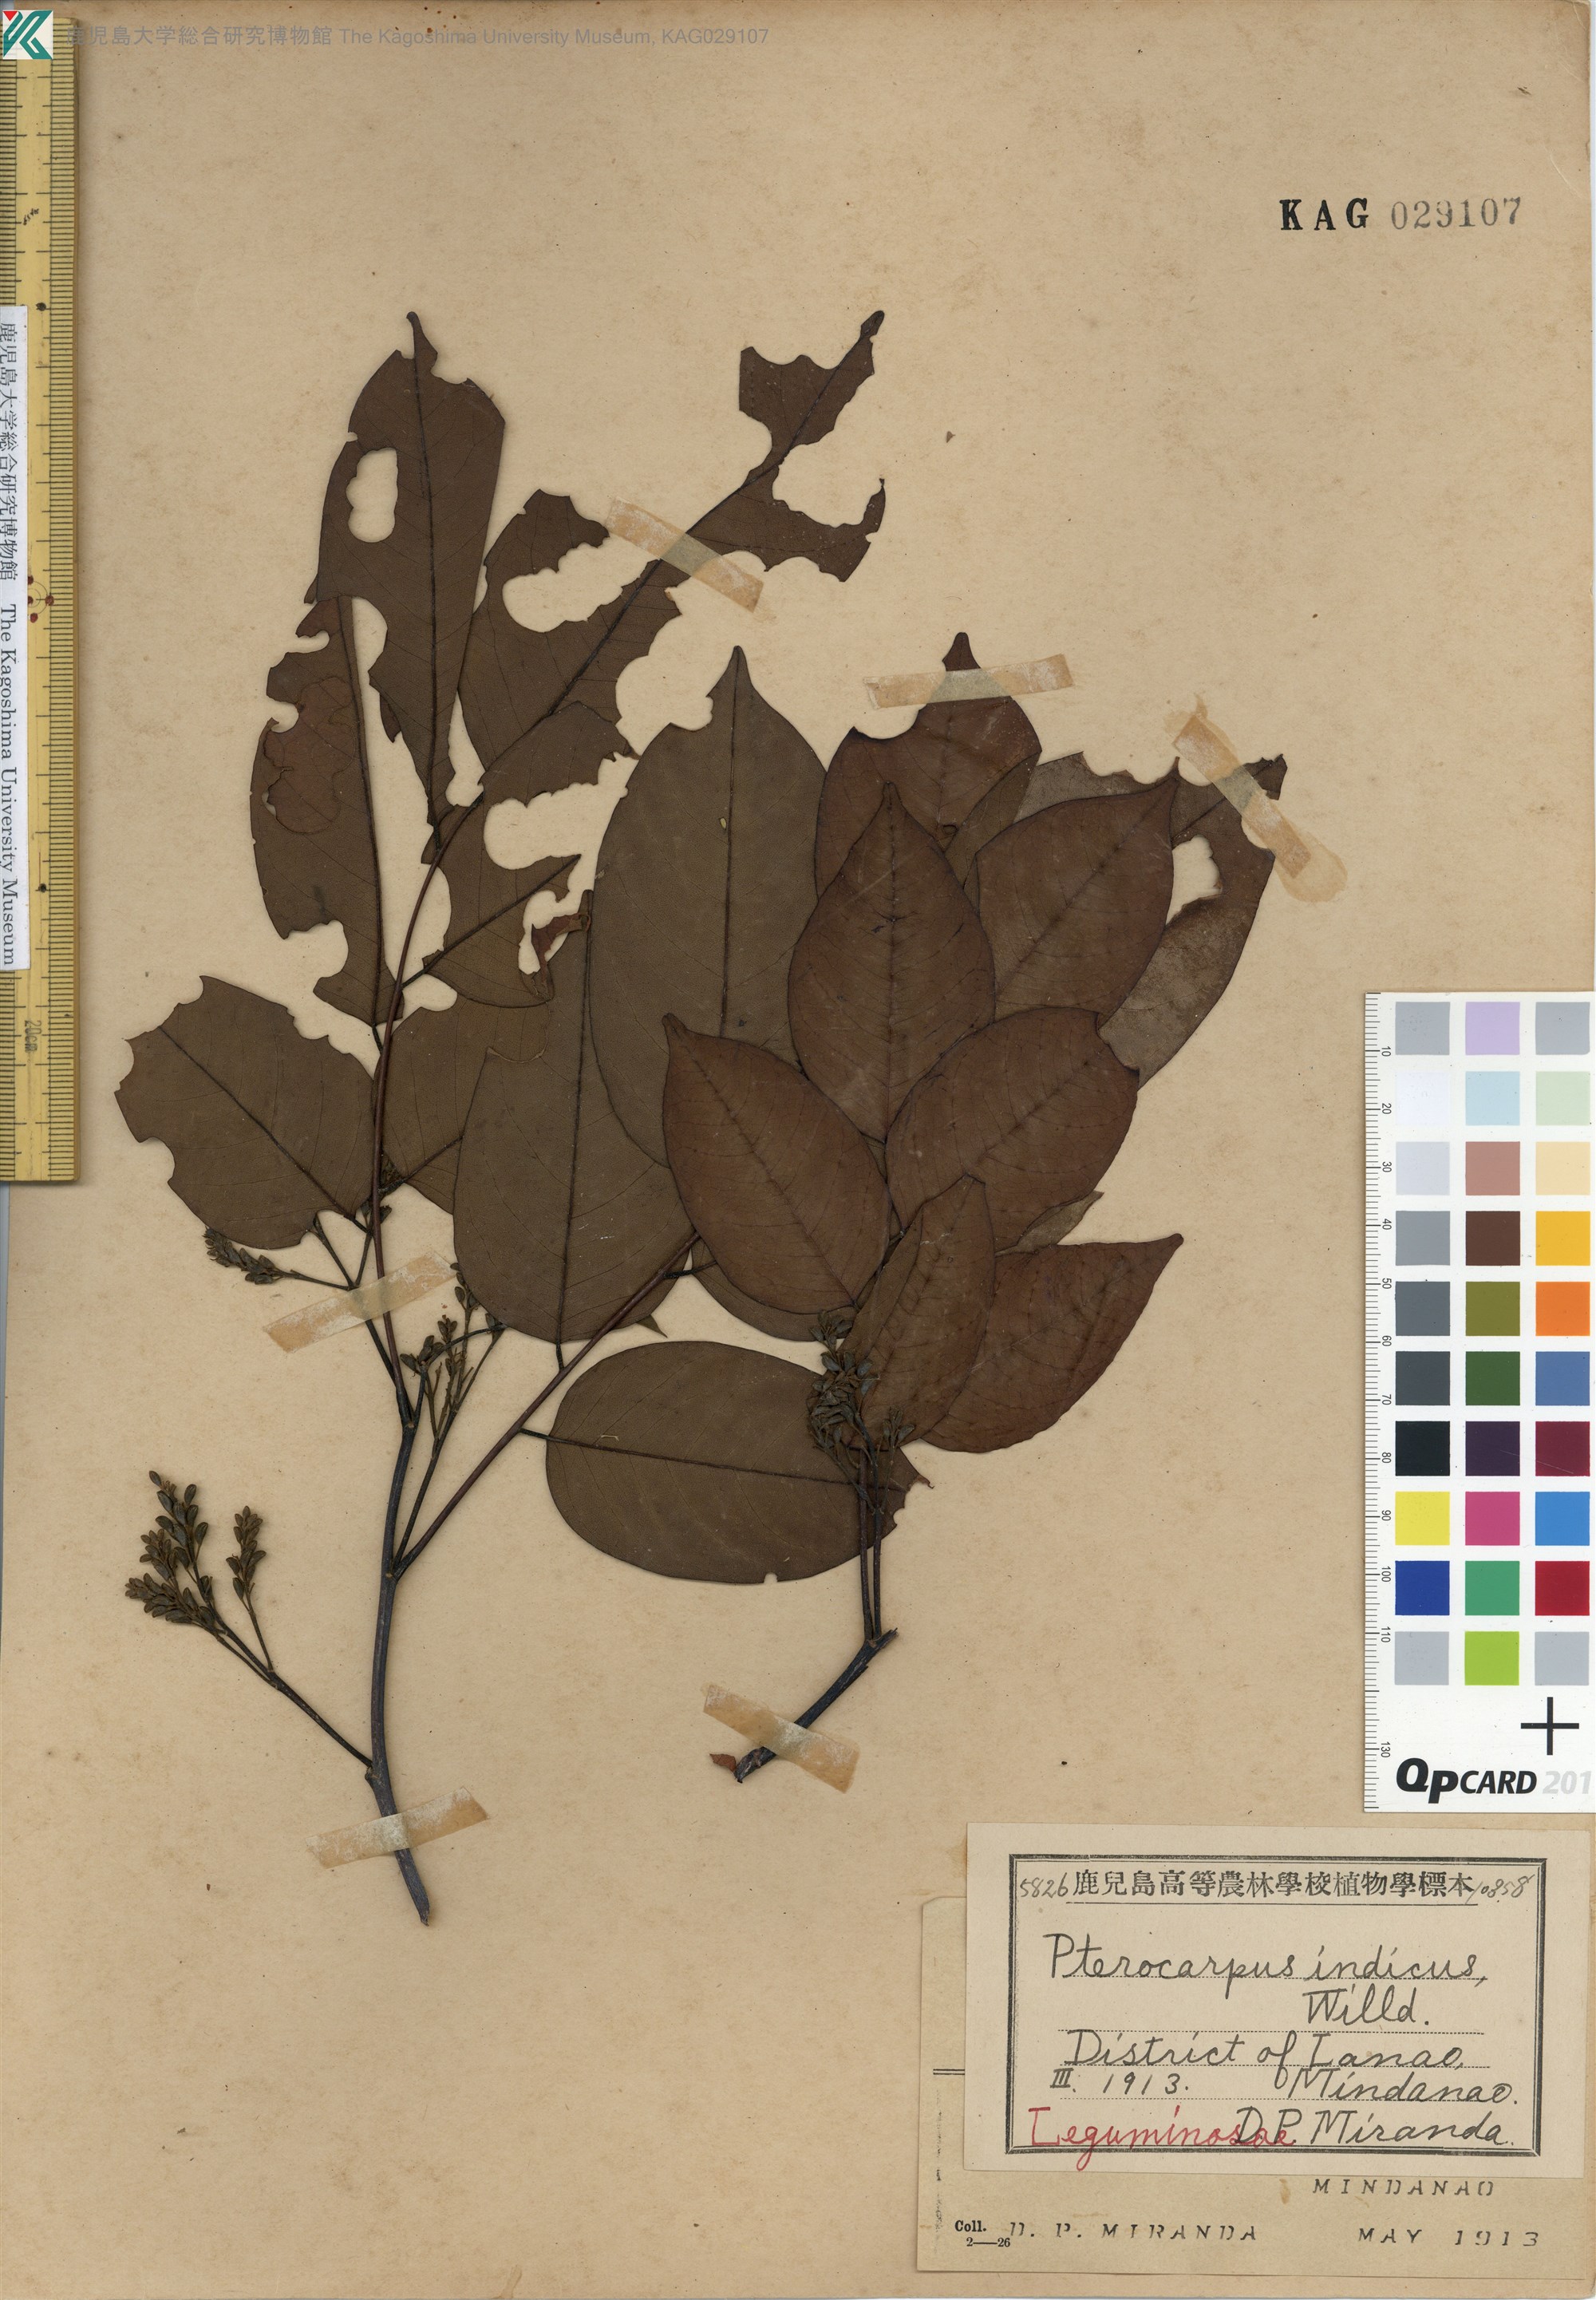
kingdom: Plantae
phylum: Tracheophyta
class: Magnoliopsida
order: Fabales
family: Fabaceae
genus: Pterocarpus
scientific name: Pterocarpus indicus
